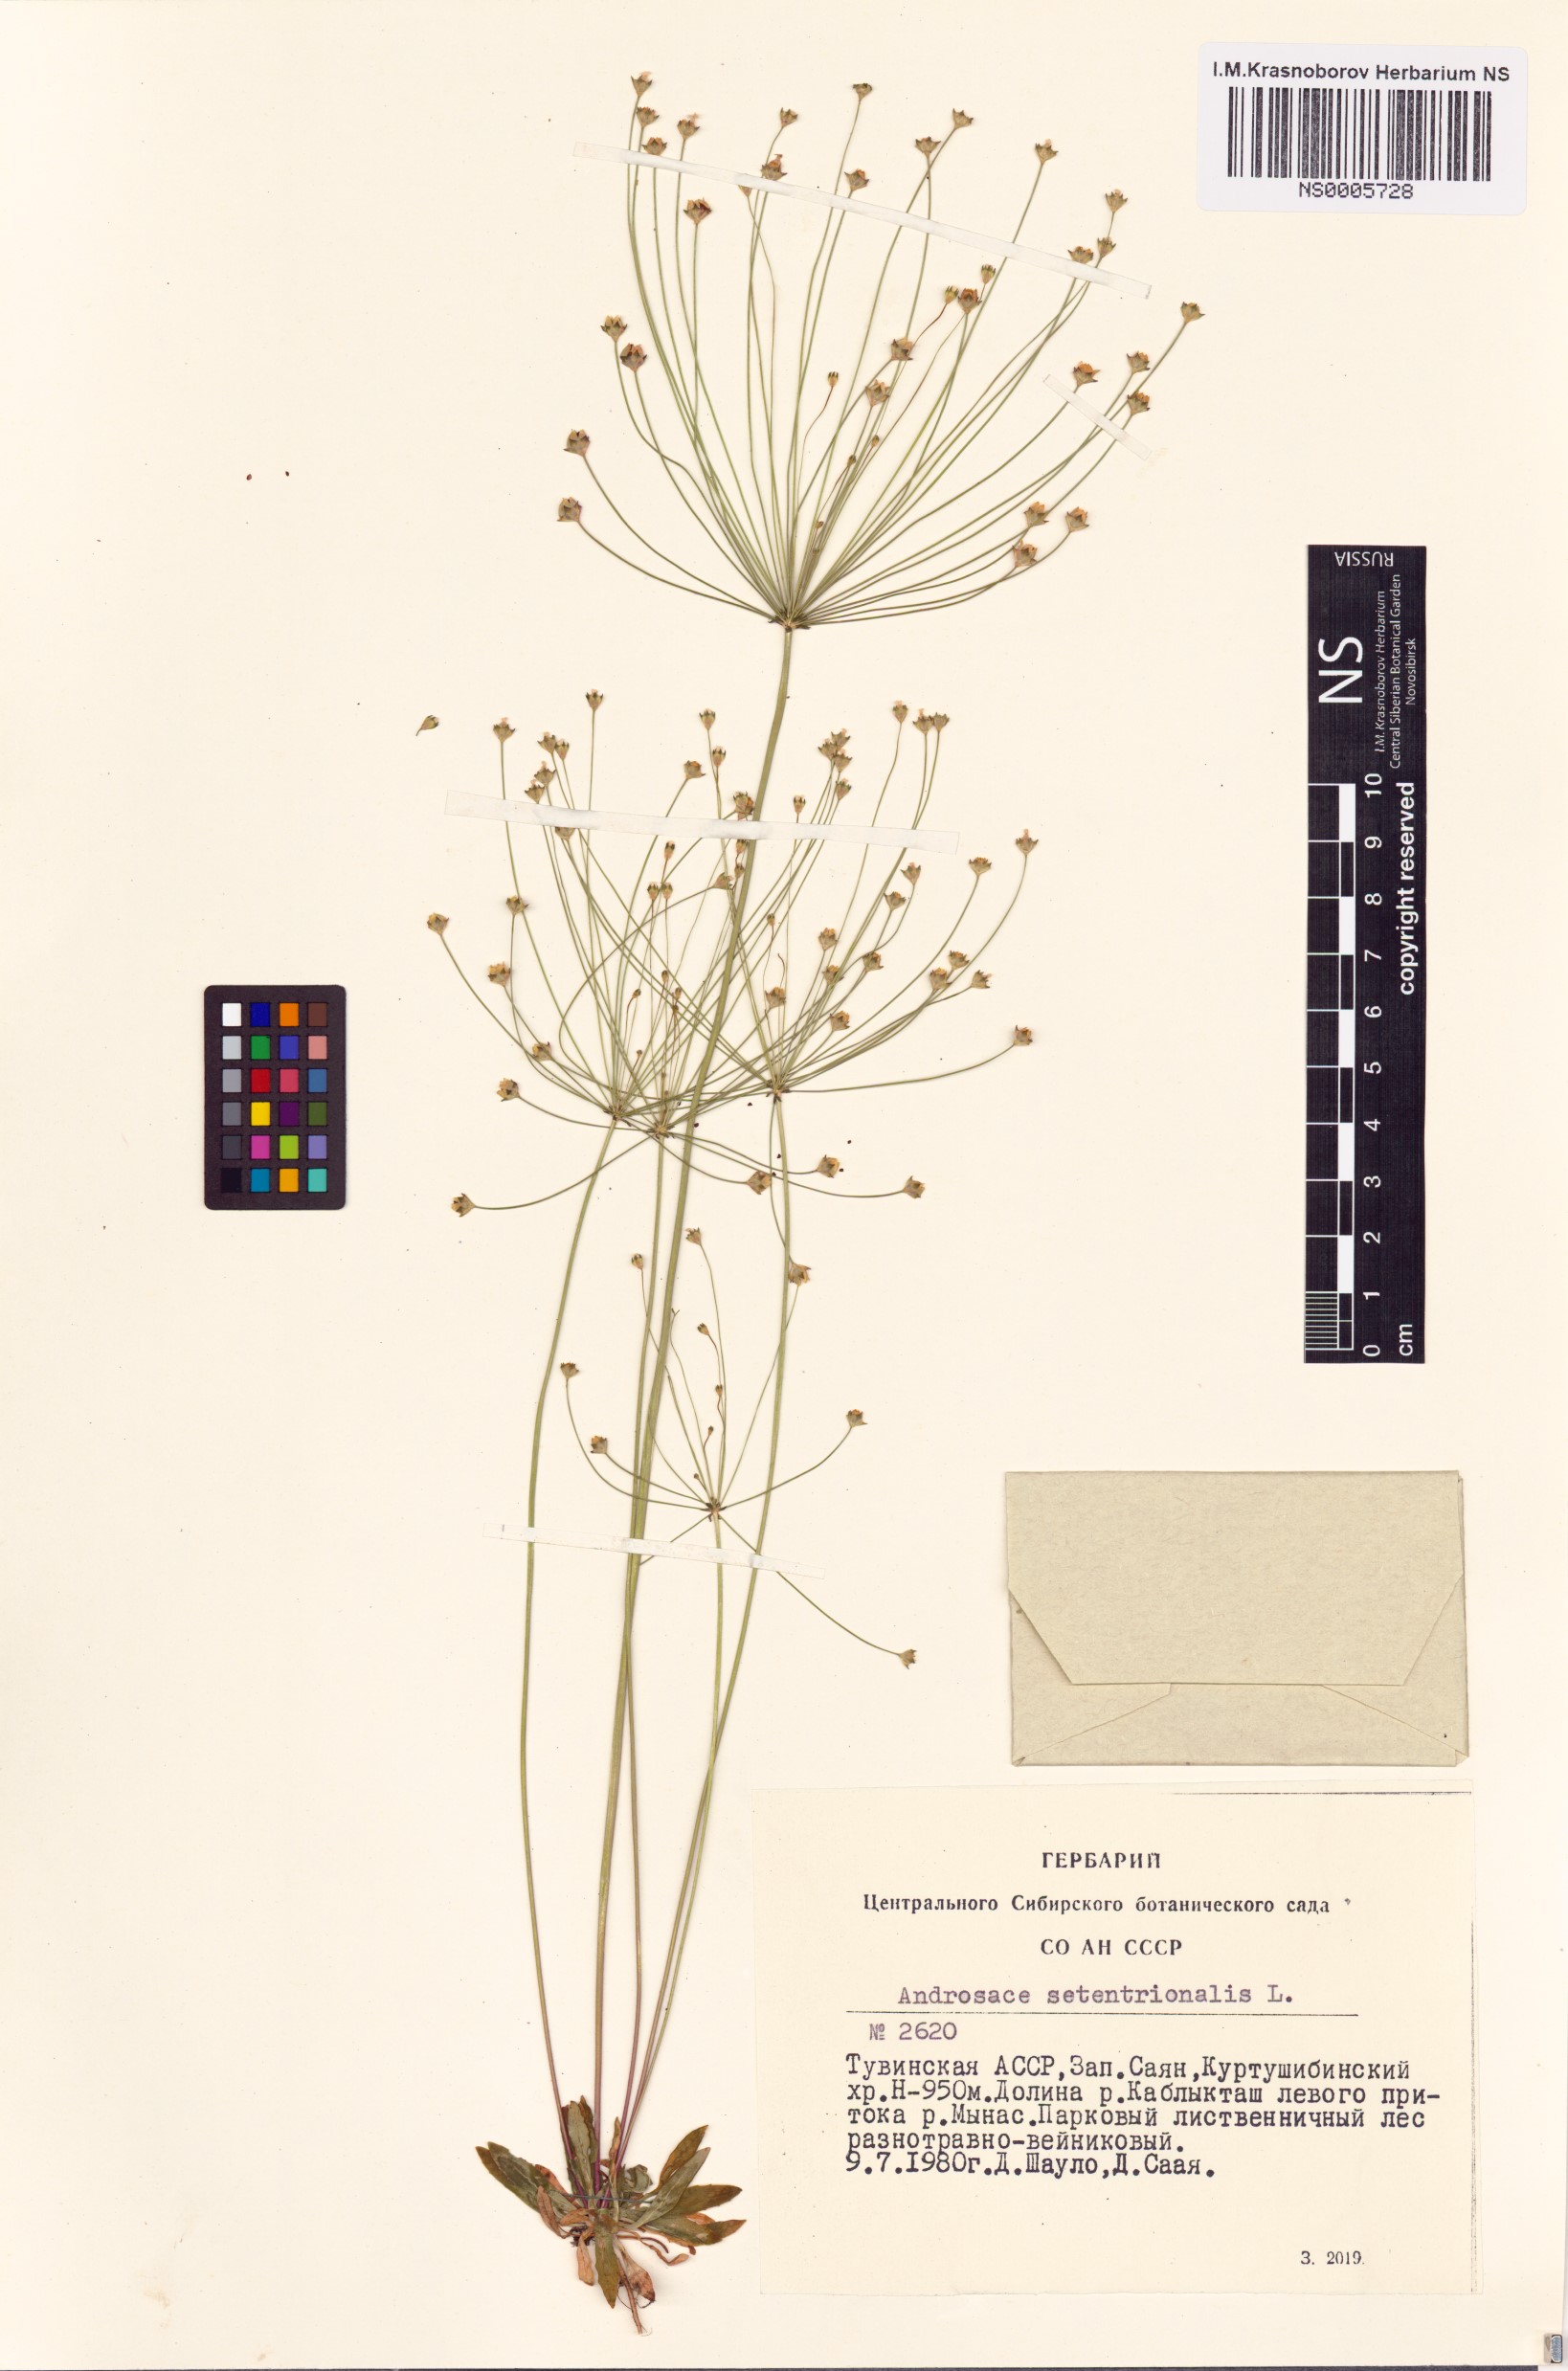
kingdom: Plantae
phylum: Tracheophyta
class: Magnoliopsida
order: Ericales
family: Primulaceae
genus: Androsace
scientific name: Androsace septentrionalis
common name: Hairy northern fairy-candelabra
